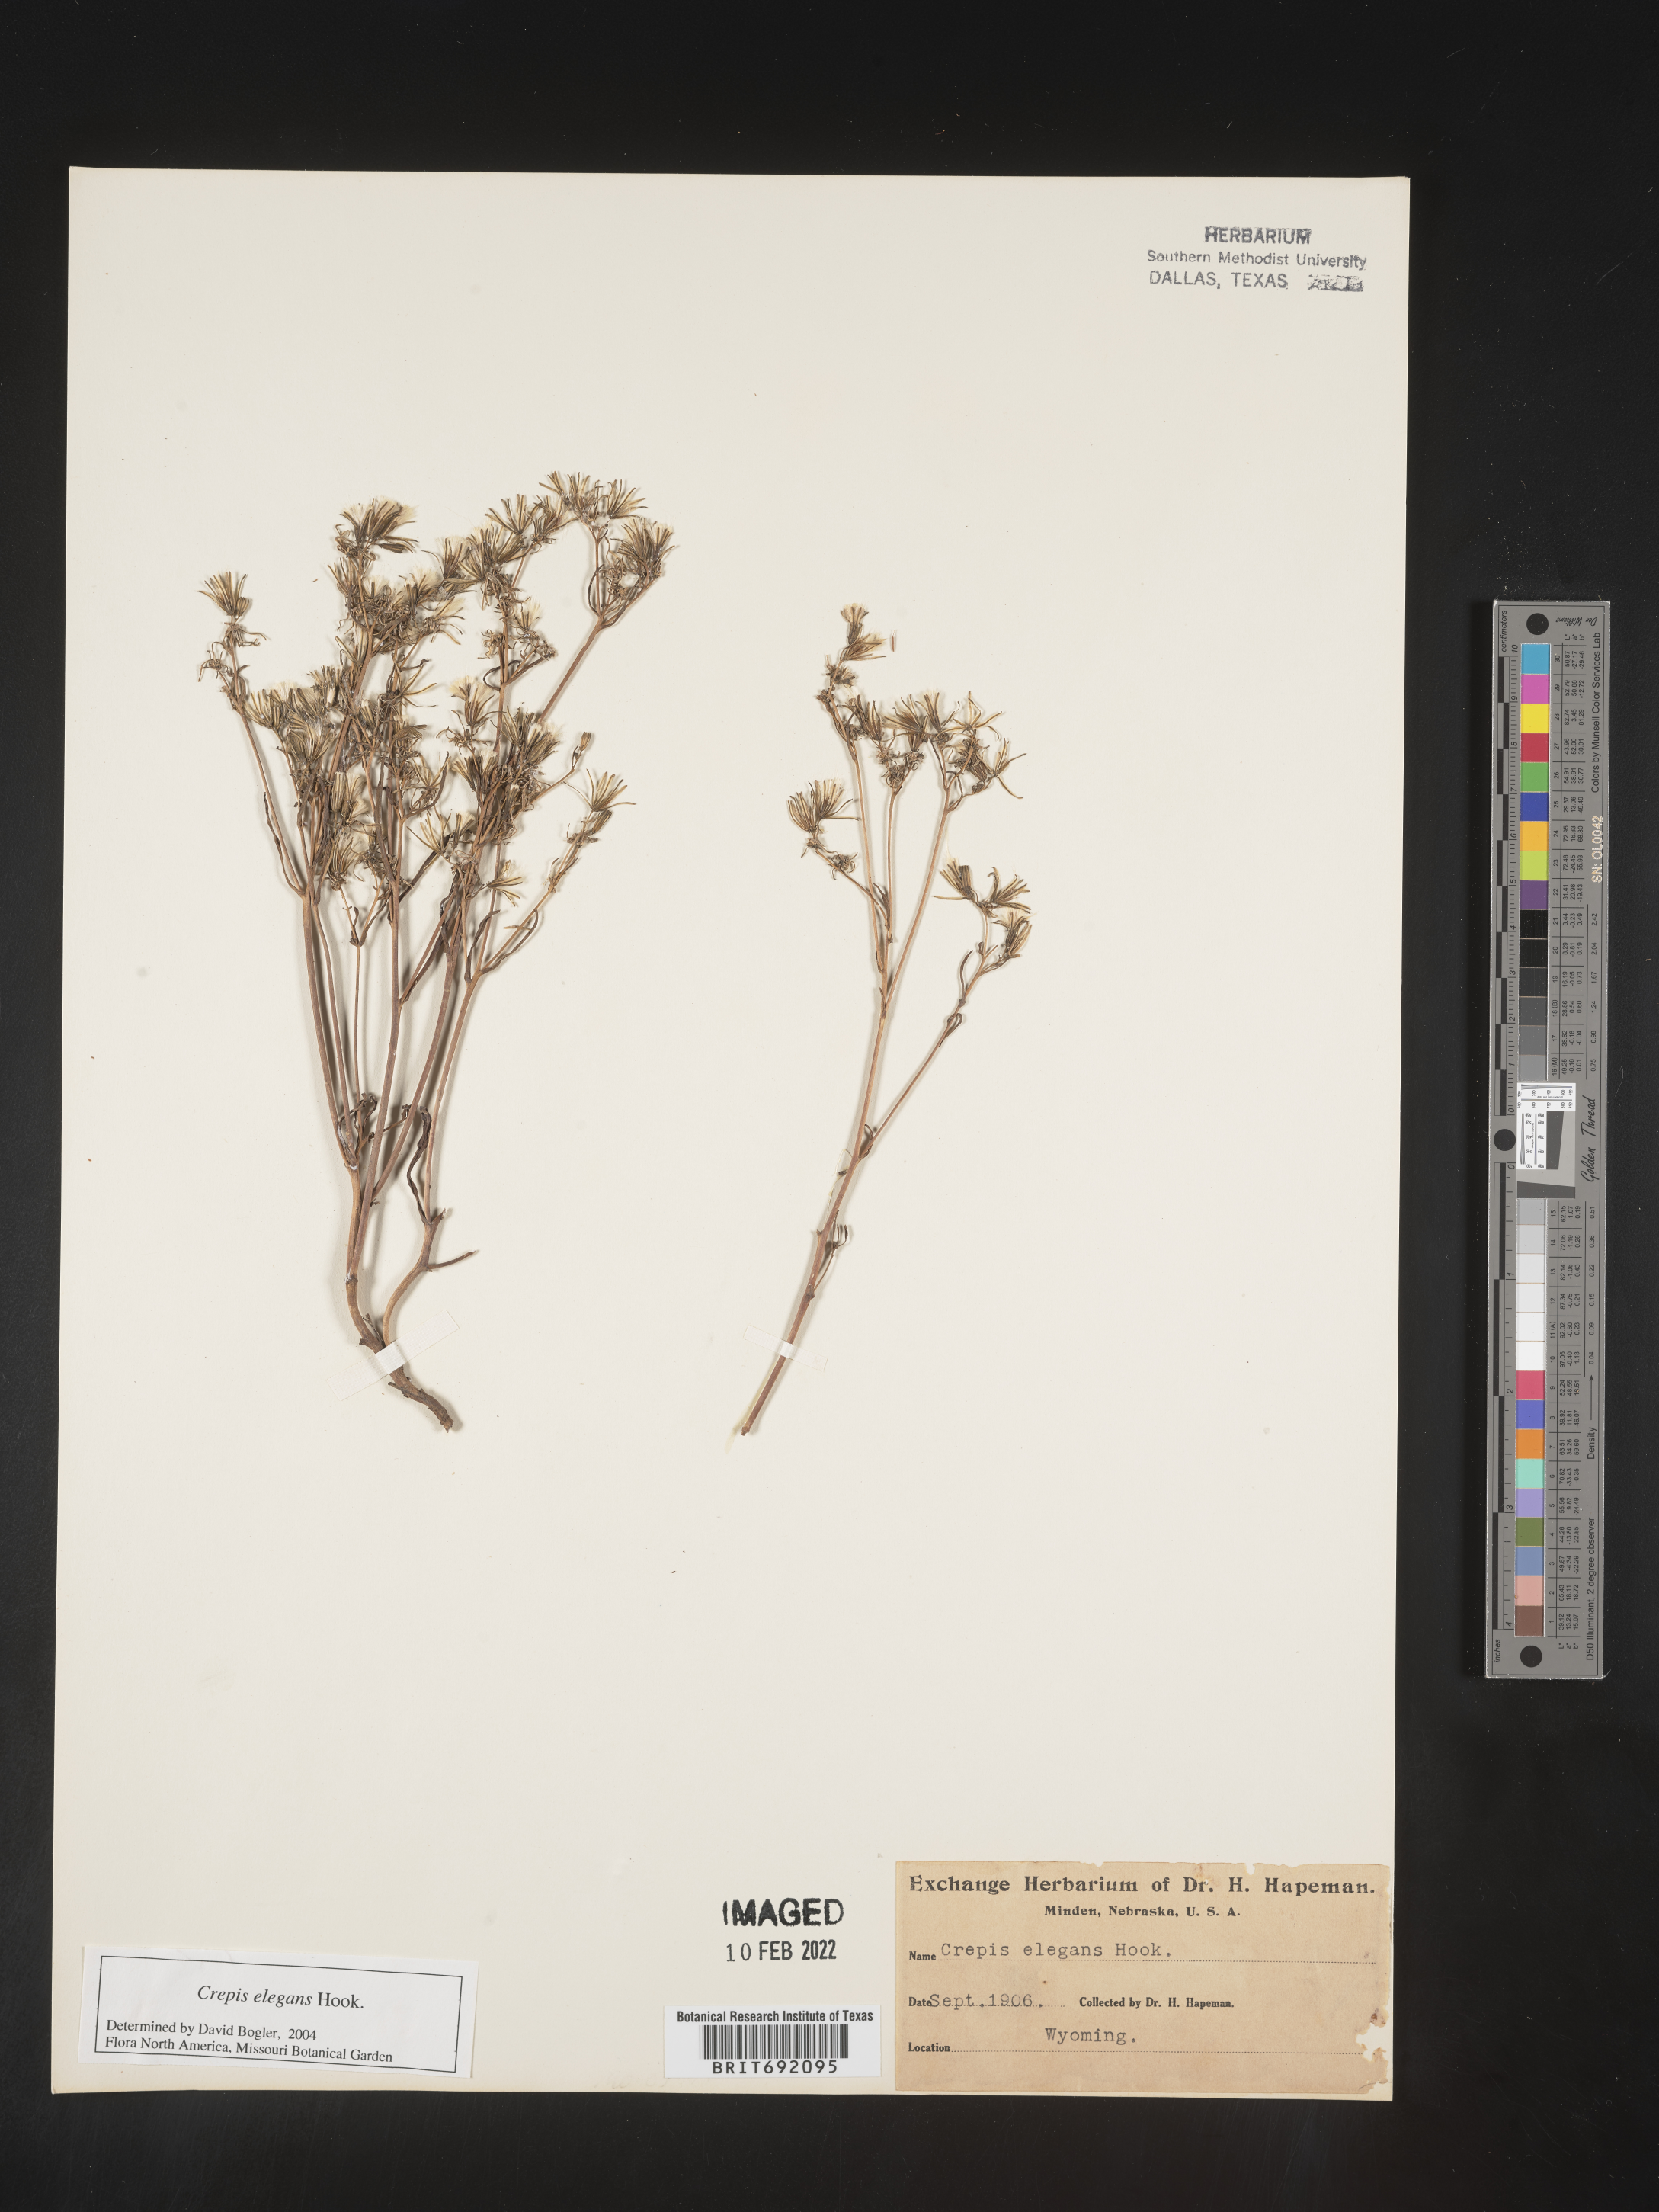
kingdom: Plantae
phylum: Tracheophyta
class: Magnoliopsida
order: Asterales
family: Asteraceae
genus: Crepis
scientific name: Crepis
